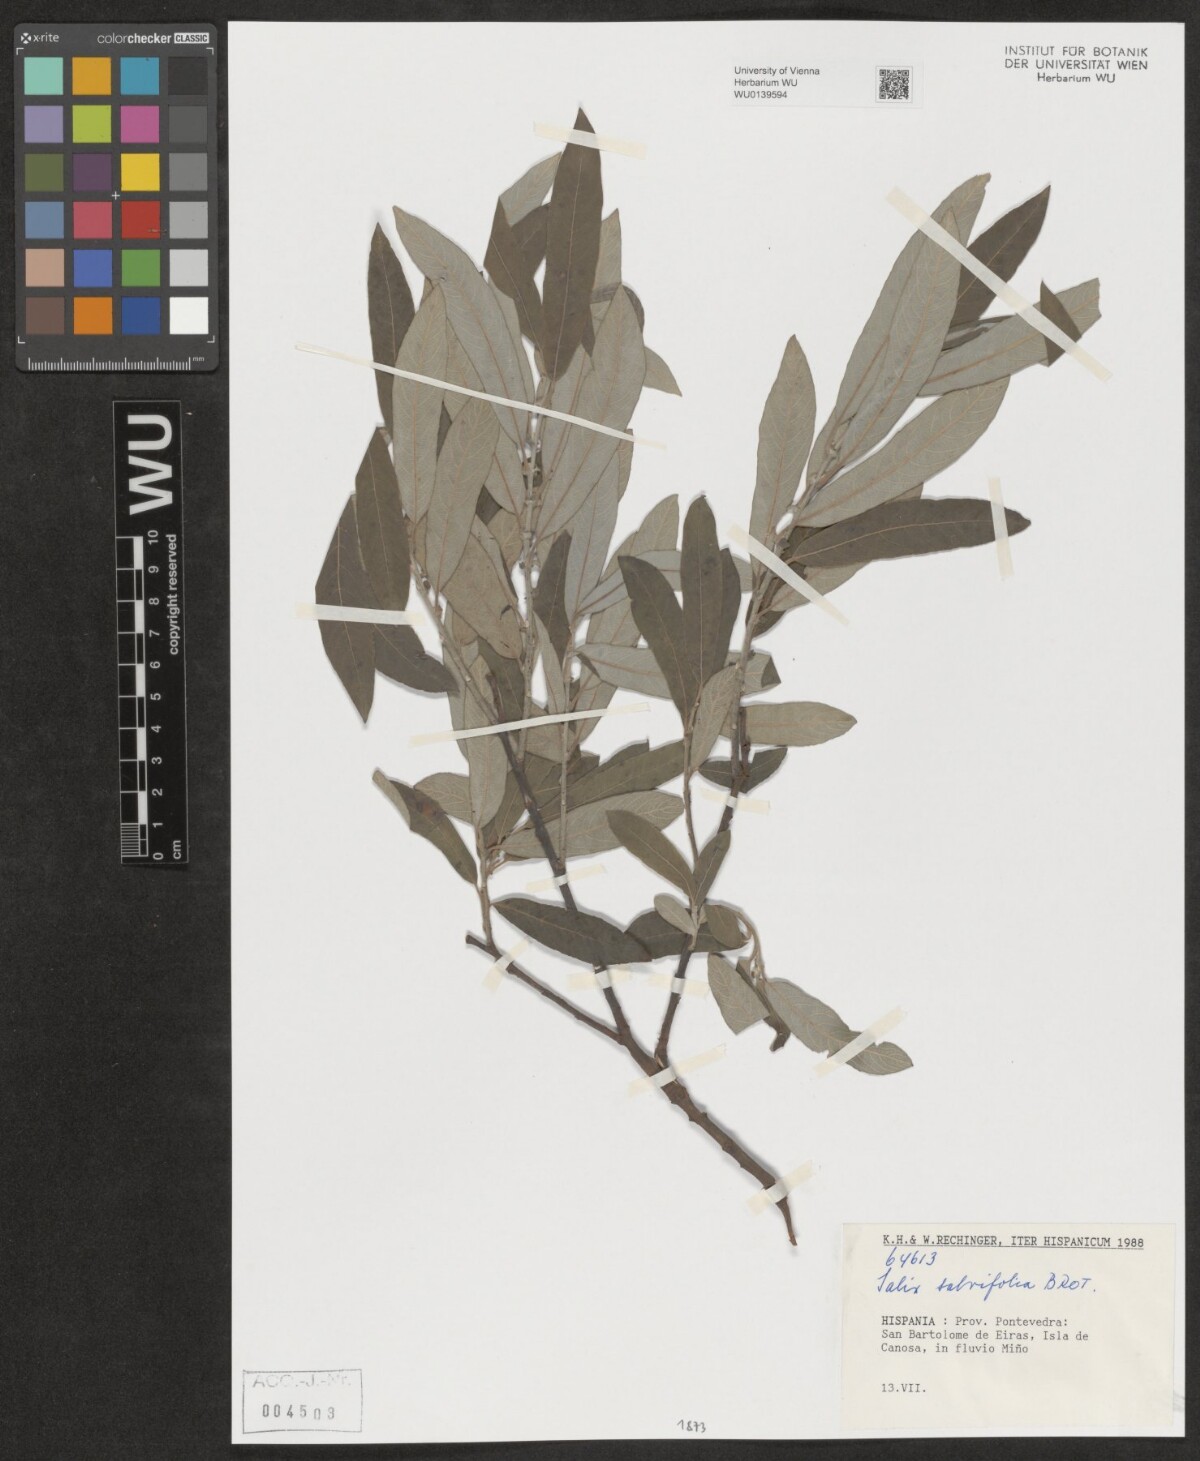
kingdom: Plantae
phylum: Tracheophyta
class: Magnoliopsida
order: Malpighiales
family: Salicaceae
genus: Salix
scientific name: Salix salviifolia
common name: Salvia-leaf willow
